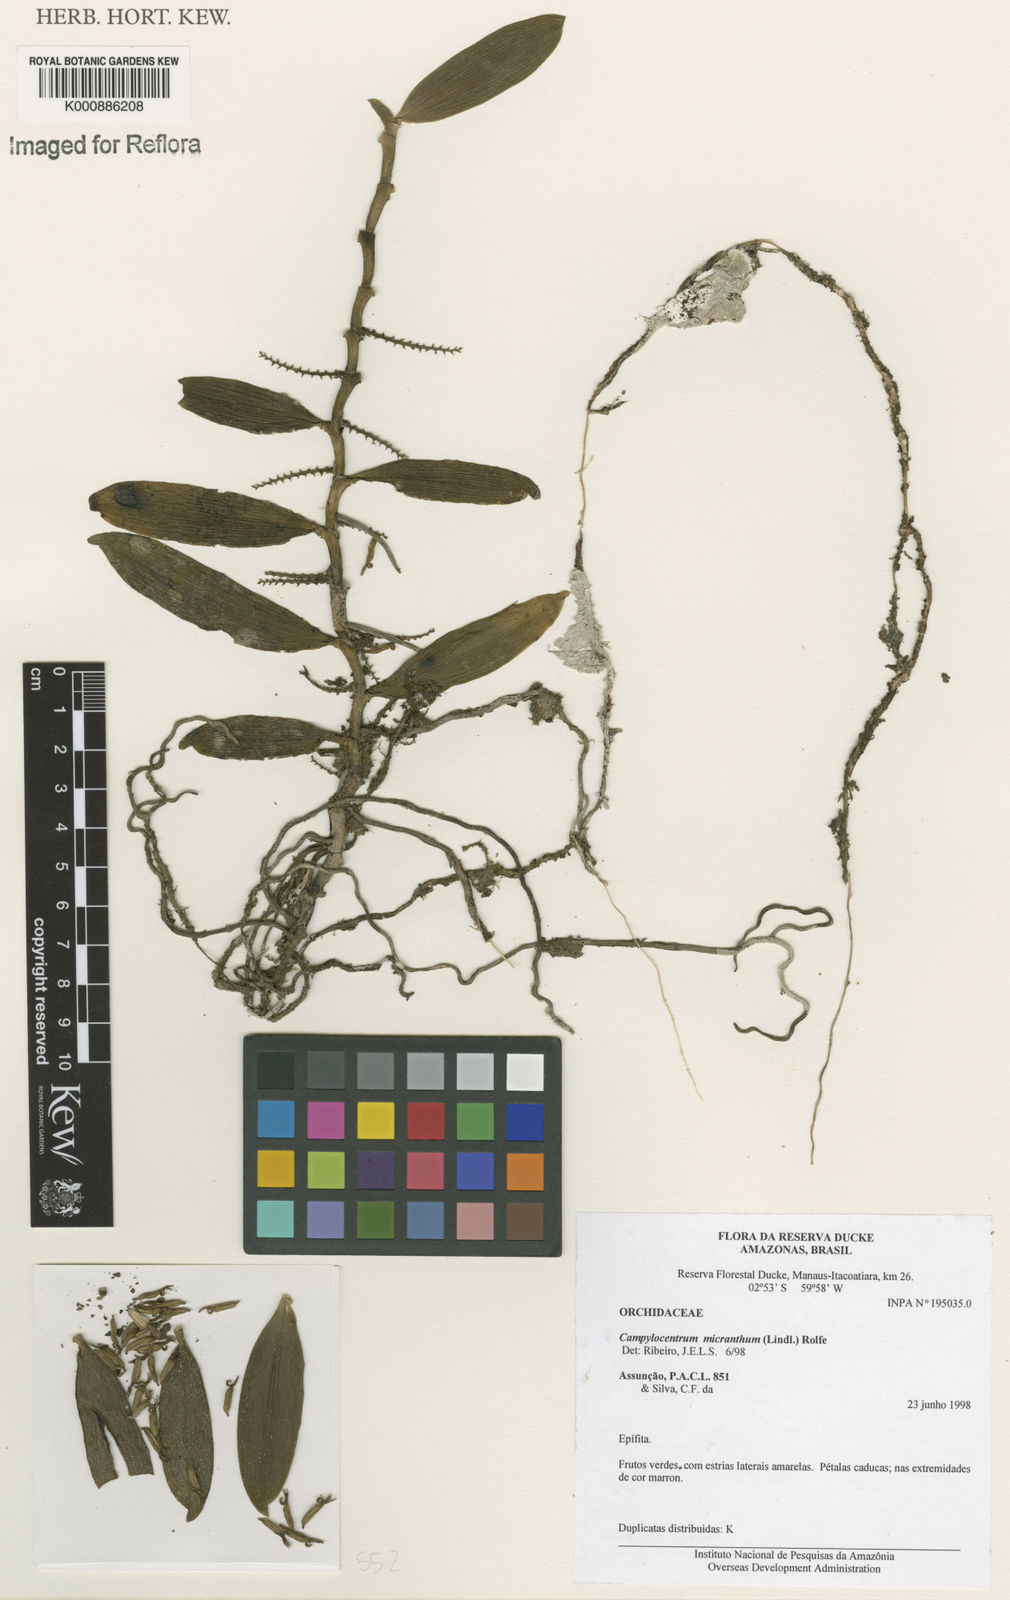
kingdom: Plantae
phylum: Tracheophyta
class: Liliopsida
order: Asparagales
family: Orchidaceae
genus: Campylocentrum
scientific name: Campylocentrum micranthum
